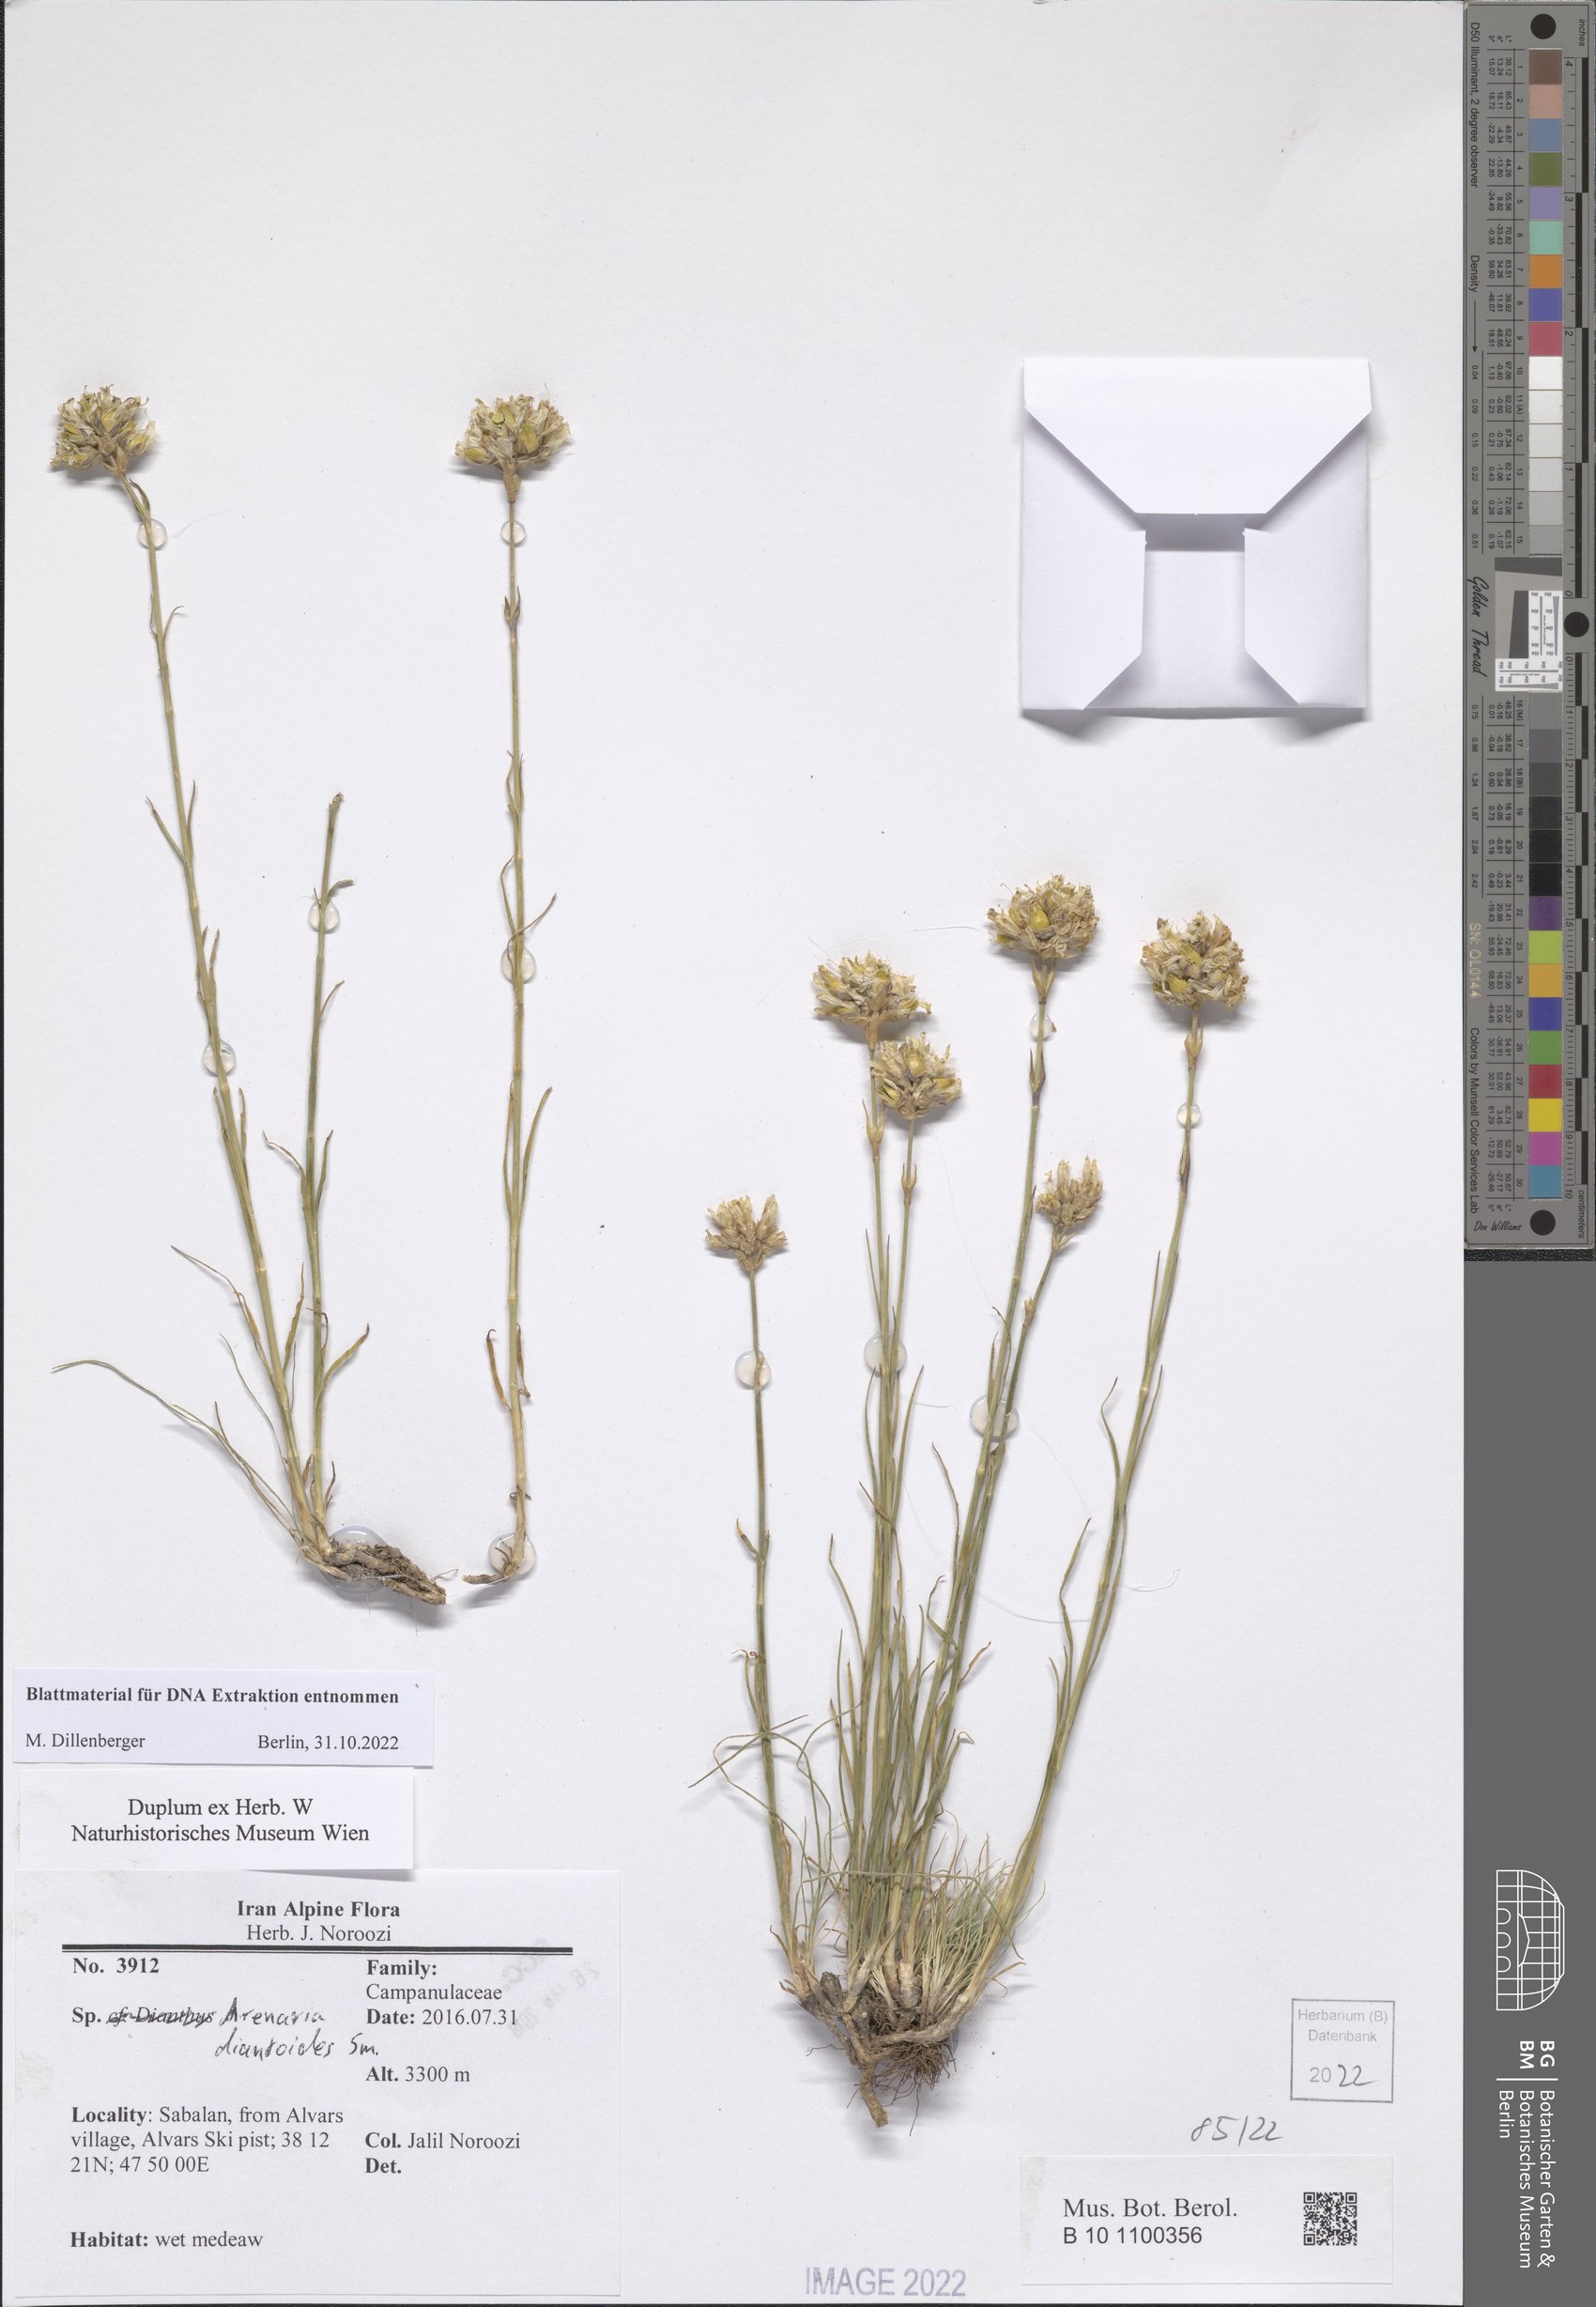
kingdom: Plantae
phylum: Tracheophyta
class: Magnoliopsida
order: Caryophyllales
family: Caryophyllaceae
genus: Eremogone
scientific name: Eremogone dianthoides
